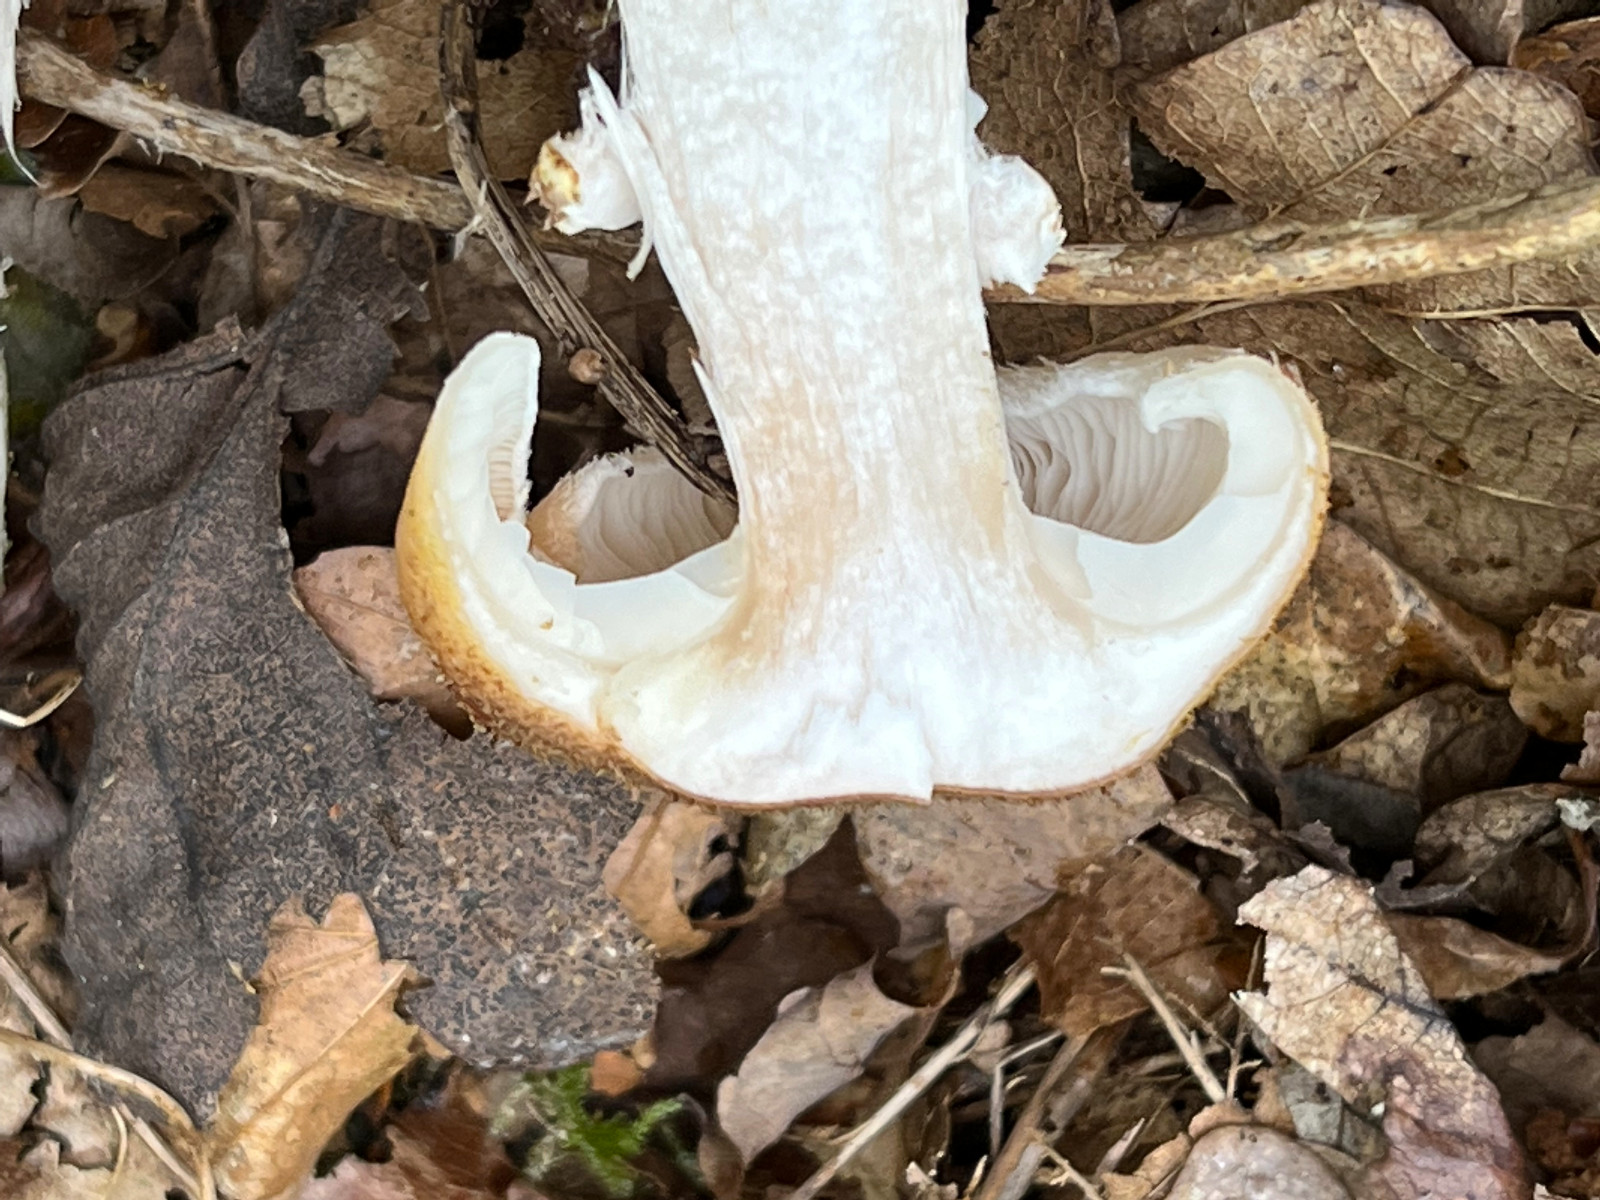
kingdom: Fungi
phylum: Basidiomycota
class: Agaricomycetes
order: Agaricales
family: Physalacriaceae
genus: Armillaria
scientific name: Armillaria mellea
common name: ægte honningsvamp
